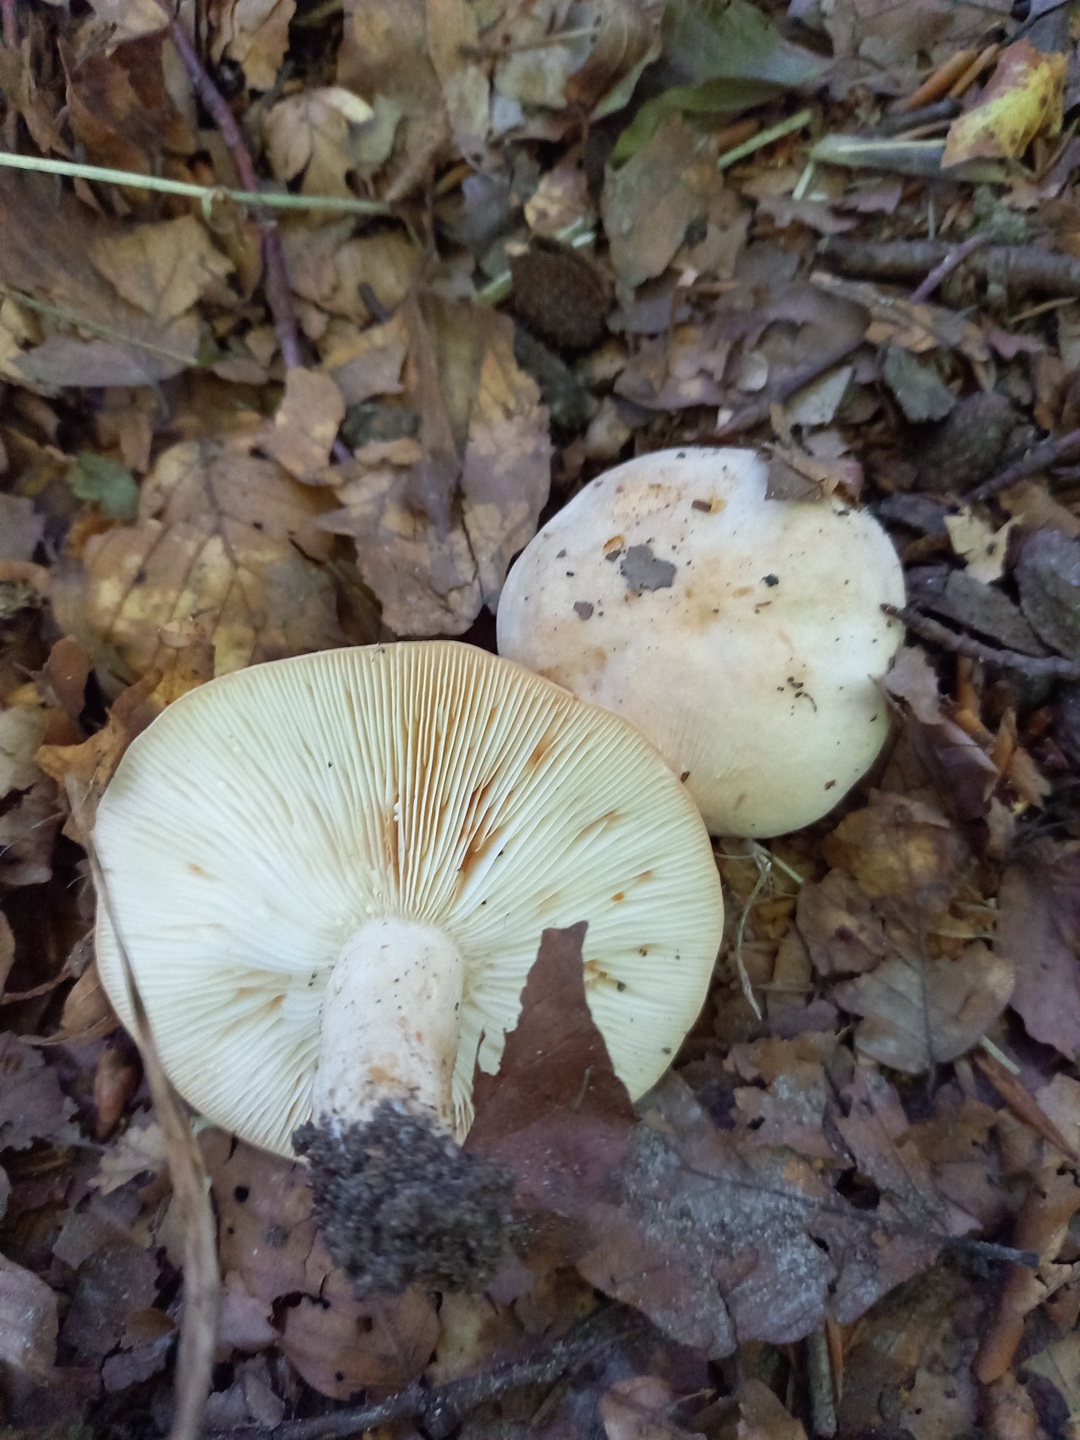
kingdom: Fungi
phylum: Basidiomycota
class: Agaricomycetes
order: Russulales
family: Russulaceae
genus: Lactarius
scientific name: Lactarius pallidus
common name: bleg mælkehat
